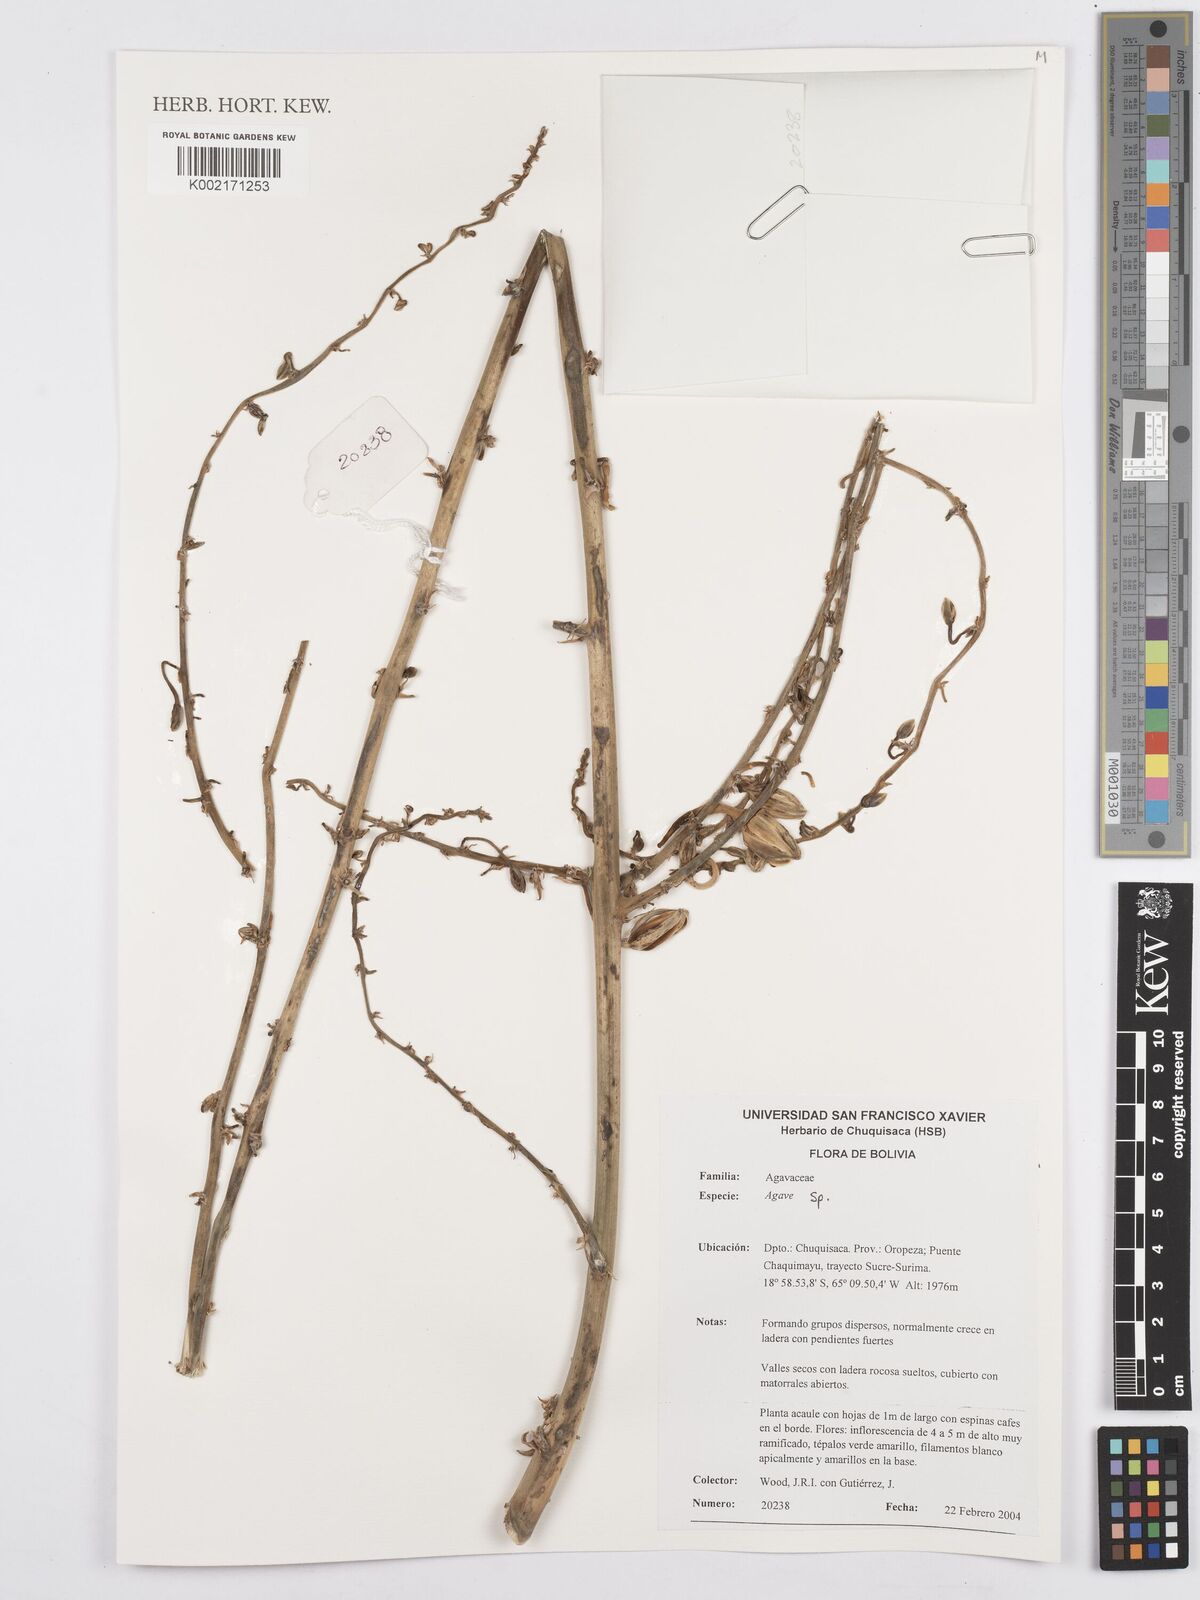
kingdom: Plantae
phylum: Tracheophyta
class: Liliopsida
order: Asparagales
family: Asparagaceae
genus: Agave
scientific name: Agave
